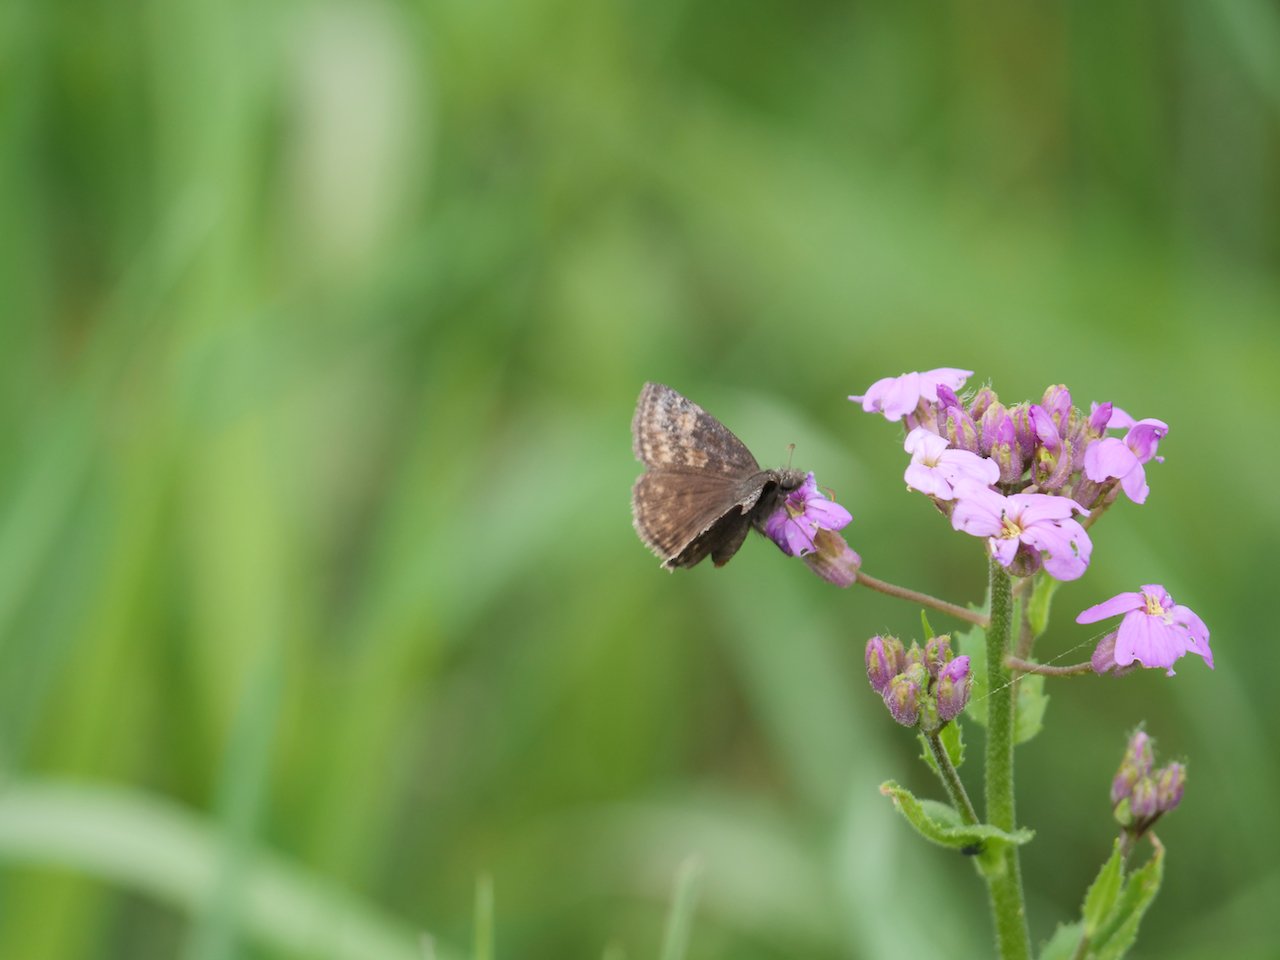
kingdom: Animalia
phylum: Arthropoda
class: Insecta
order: Lepidoptera
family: Hesperiidae
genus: Erynnis
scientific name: Erynnis
